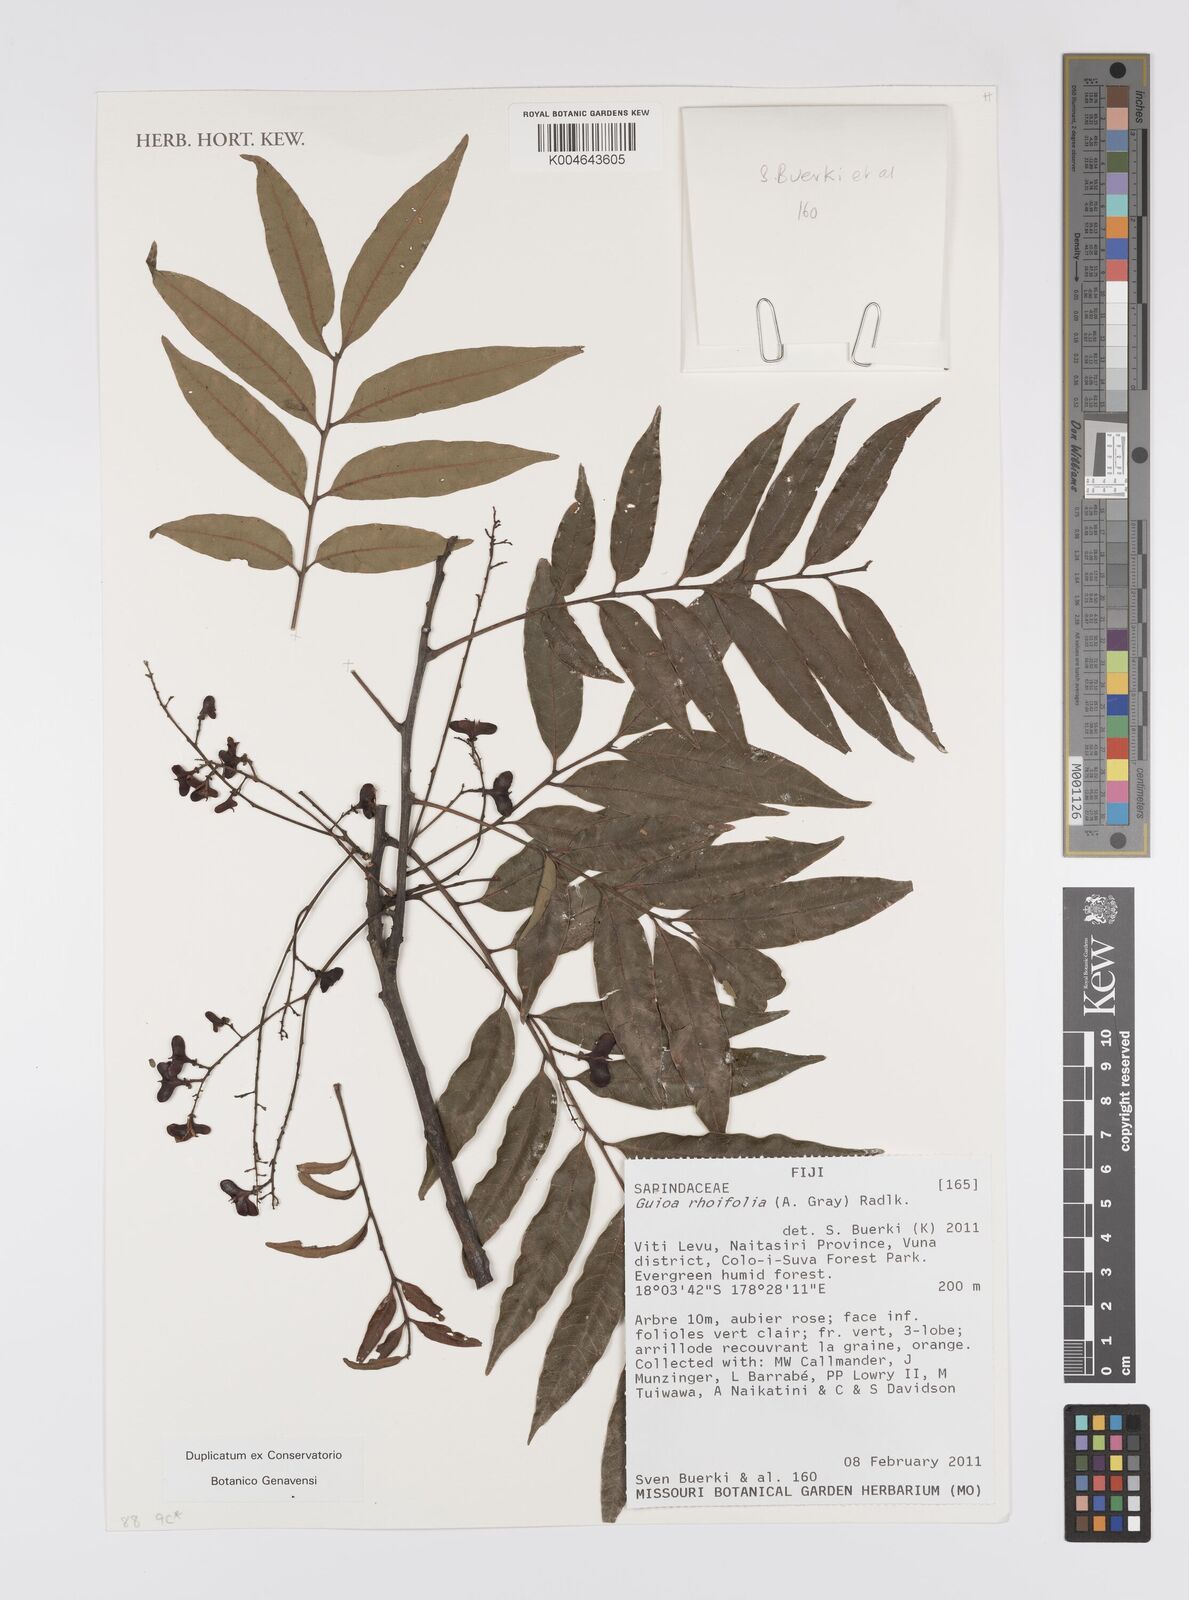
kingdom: Plantae
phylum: Tracheophyta
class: Magnoliopsida
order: Sapindales
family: Sapindaceae
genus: Guioa
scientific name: Guioa rhoifolia
